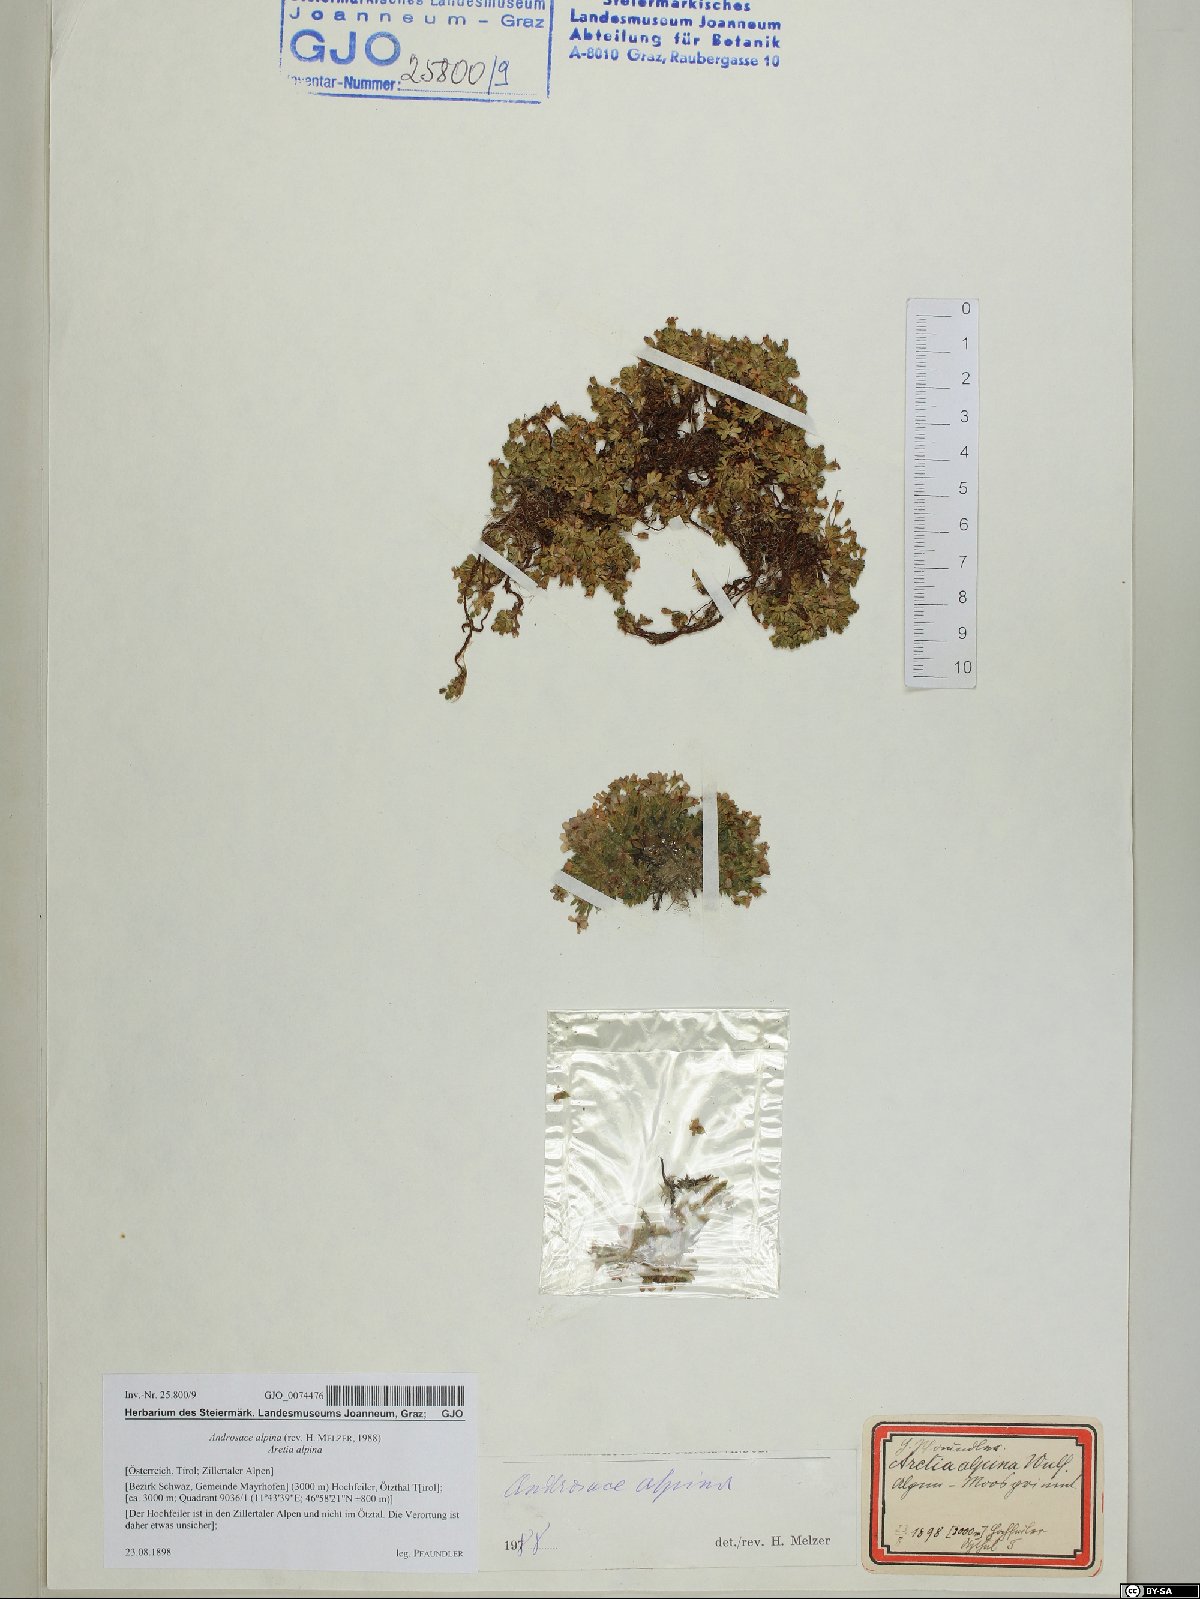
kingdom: Plantae
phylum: Tracheophyta
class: Magnoliopsida
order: Ericales
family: Primulaceae
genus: Androsace
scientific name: Androsace alpina
